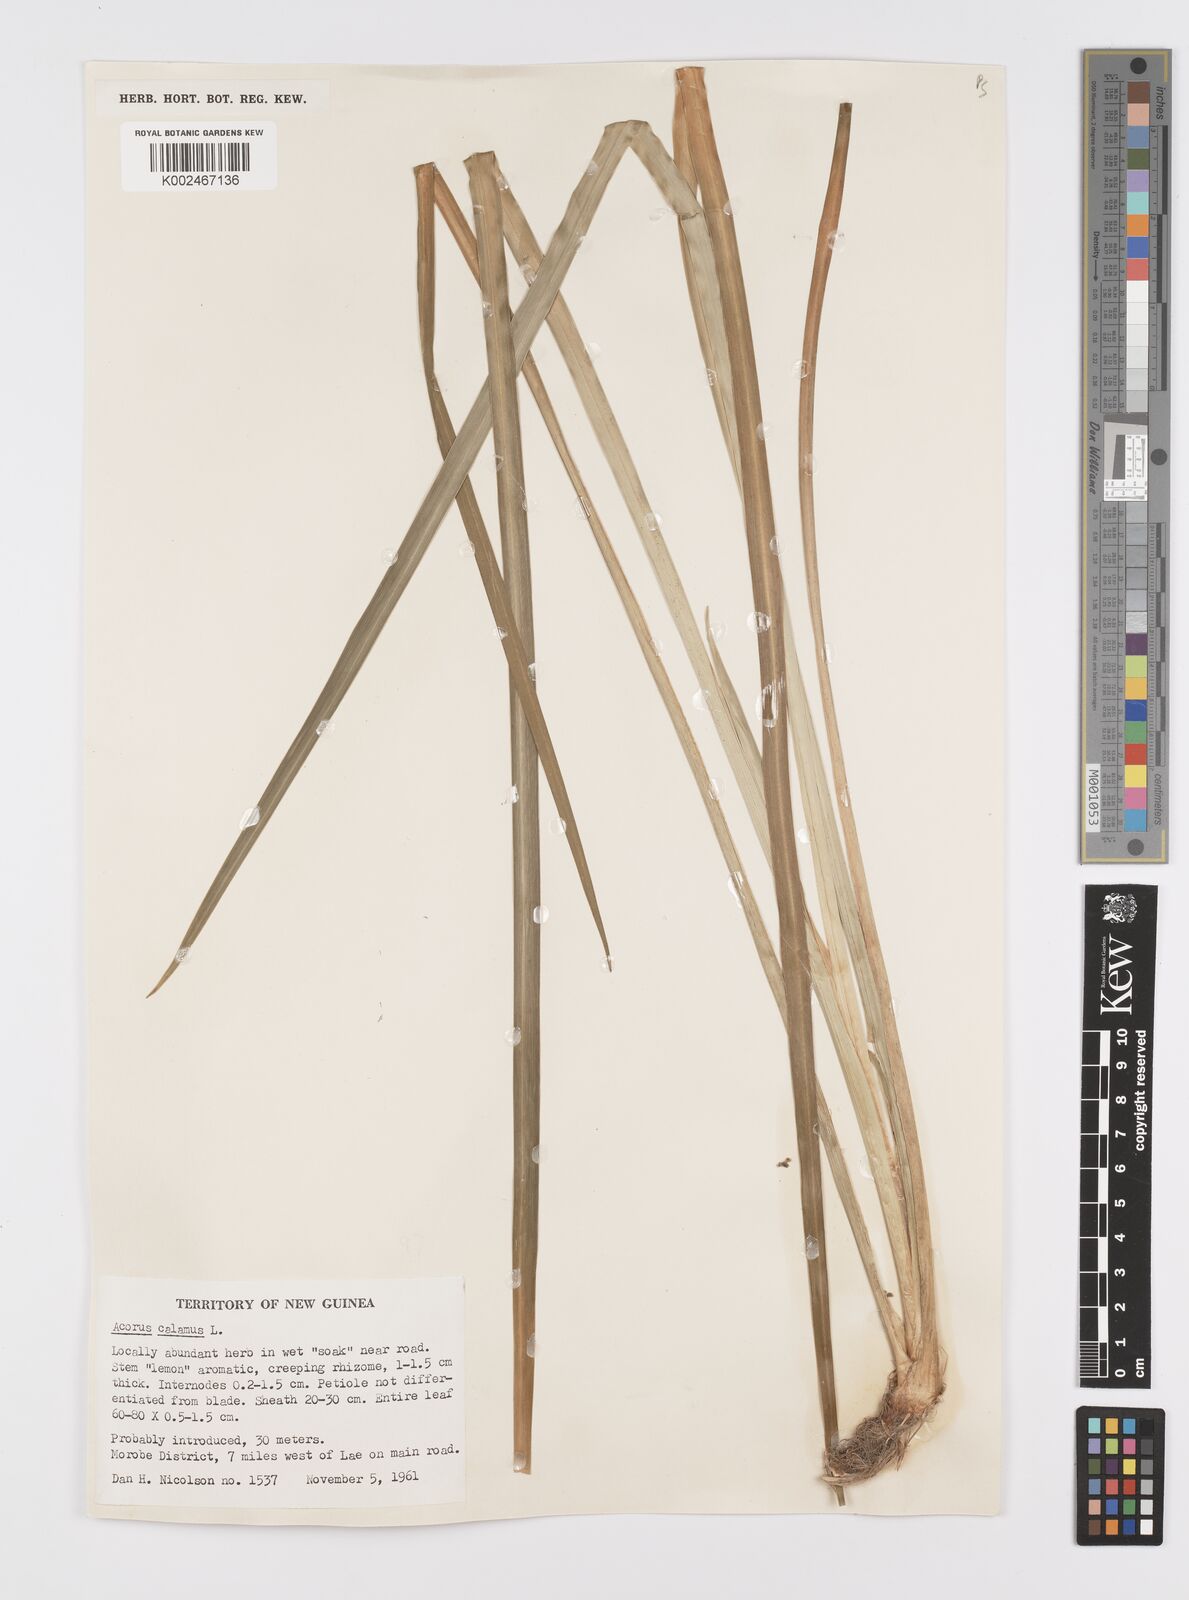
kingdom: Plantae
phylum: Tracheophyta
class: Liliopsida
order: Acorales
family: Acoraceae
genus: Acorus
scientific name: Acorus calamus
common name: Sweet-flag
